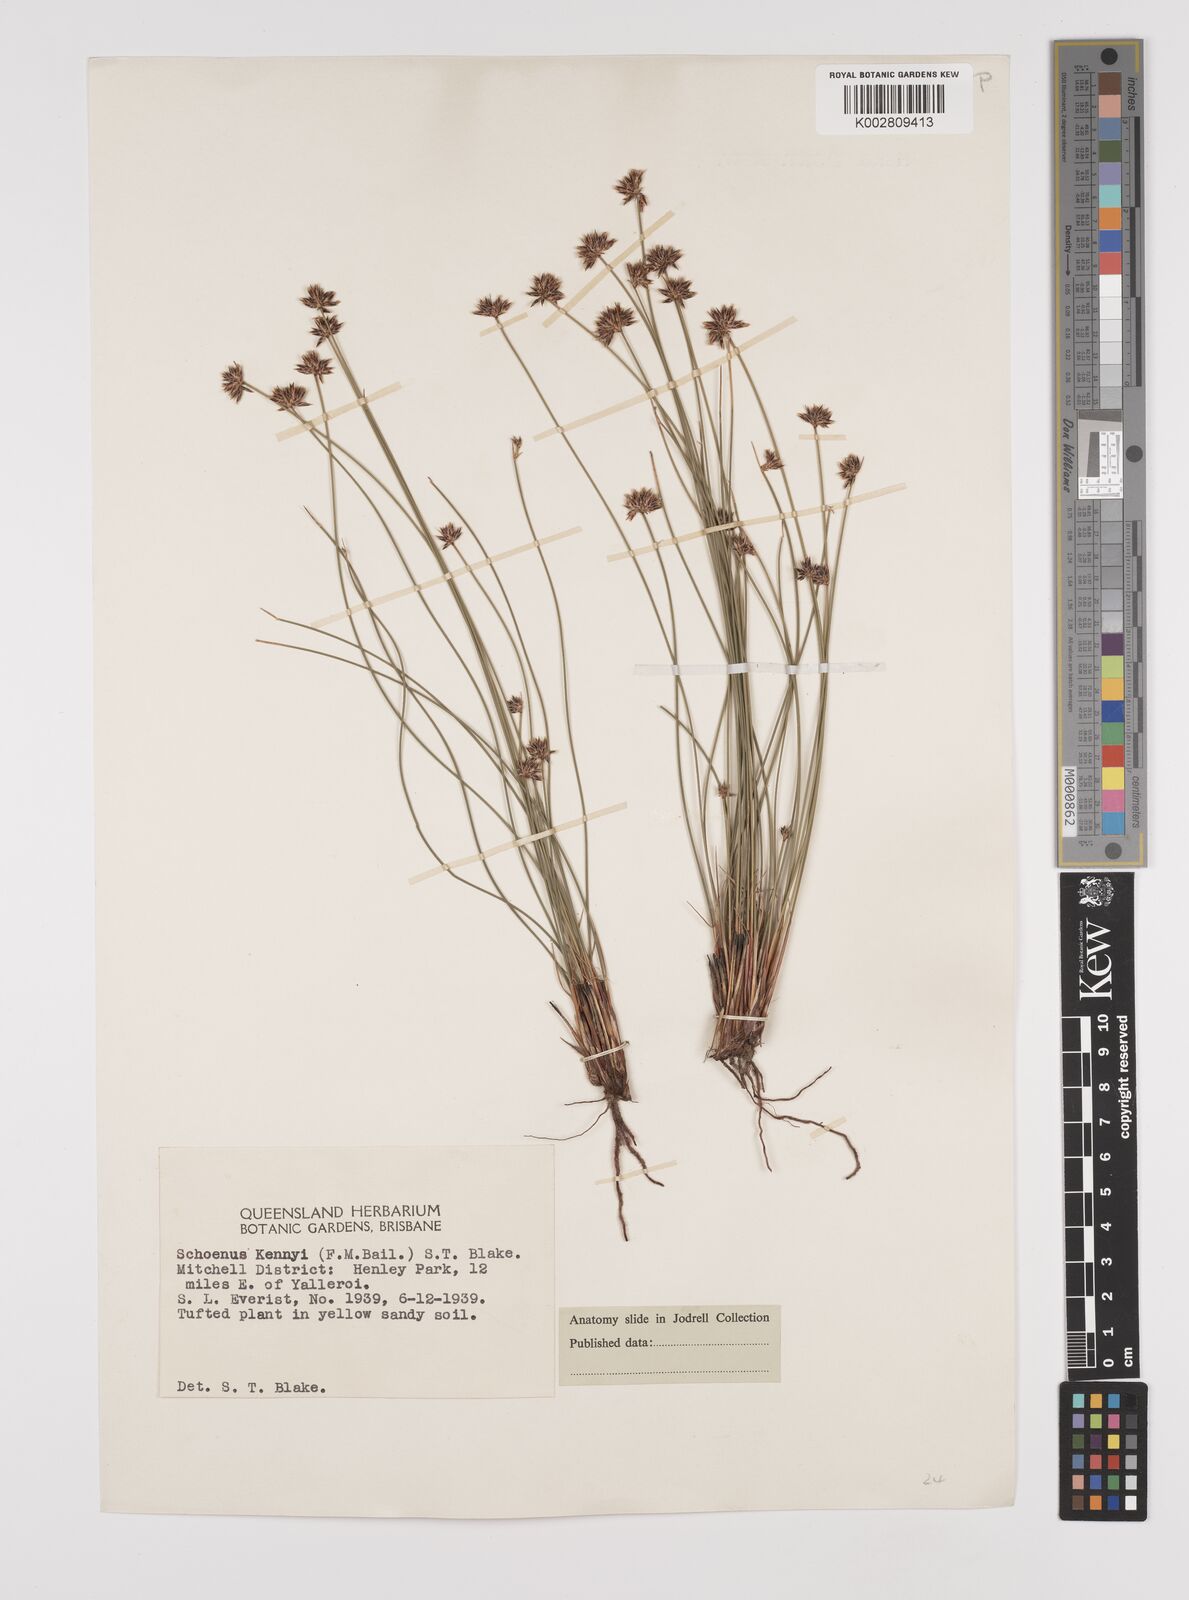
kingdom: Plantae
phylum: Tracheophyta
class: Liliopsida
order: Poales
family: Cyperaceae
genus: Schoenus
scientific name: Schoenus kennyi
